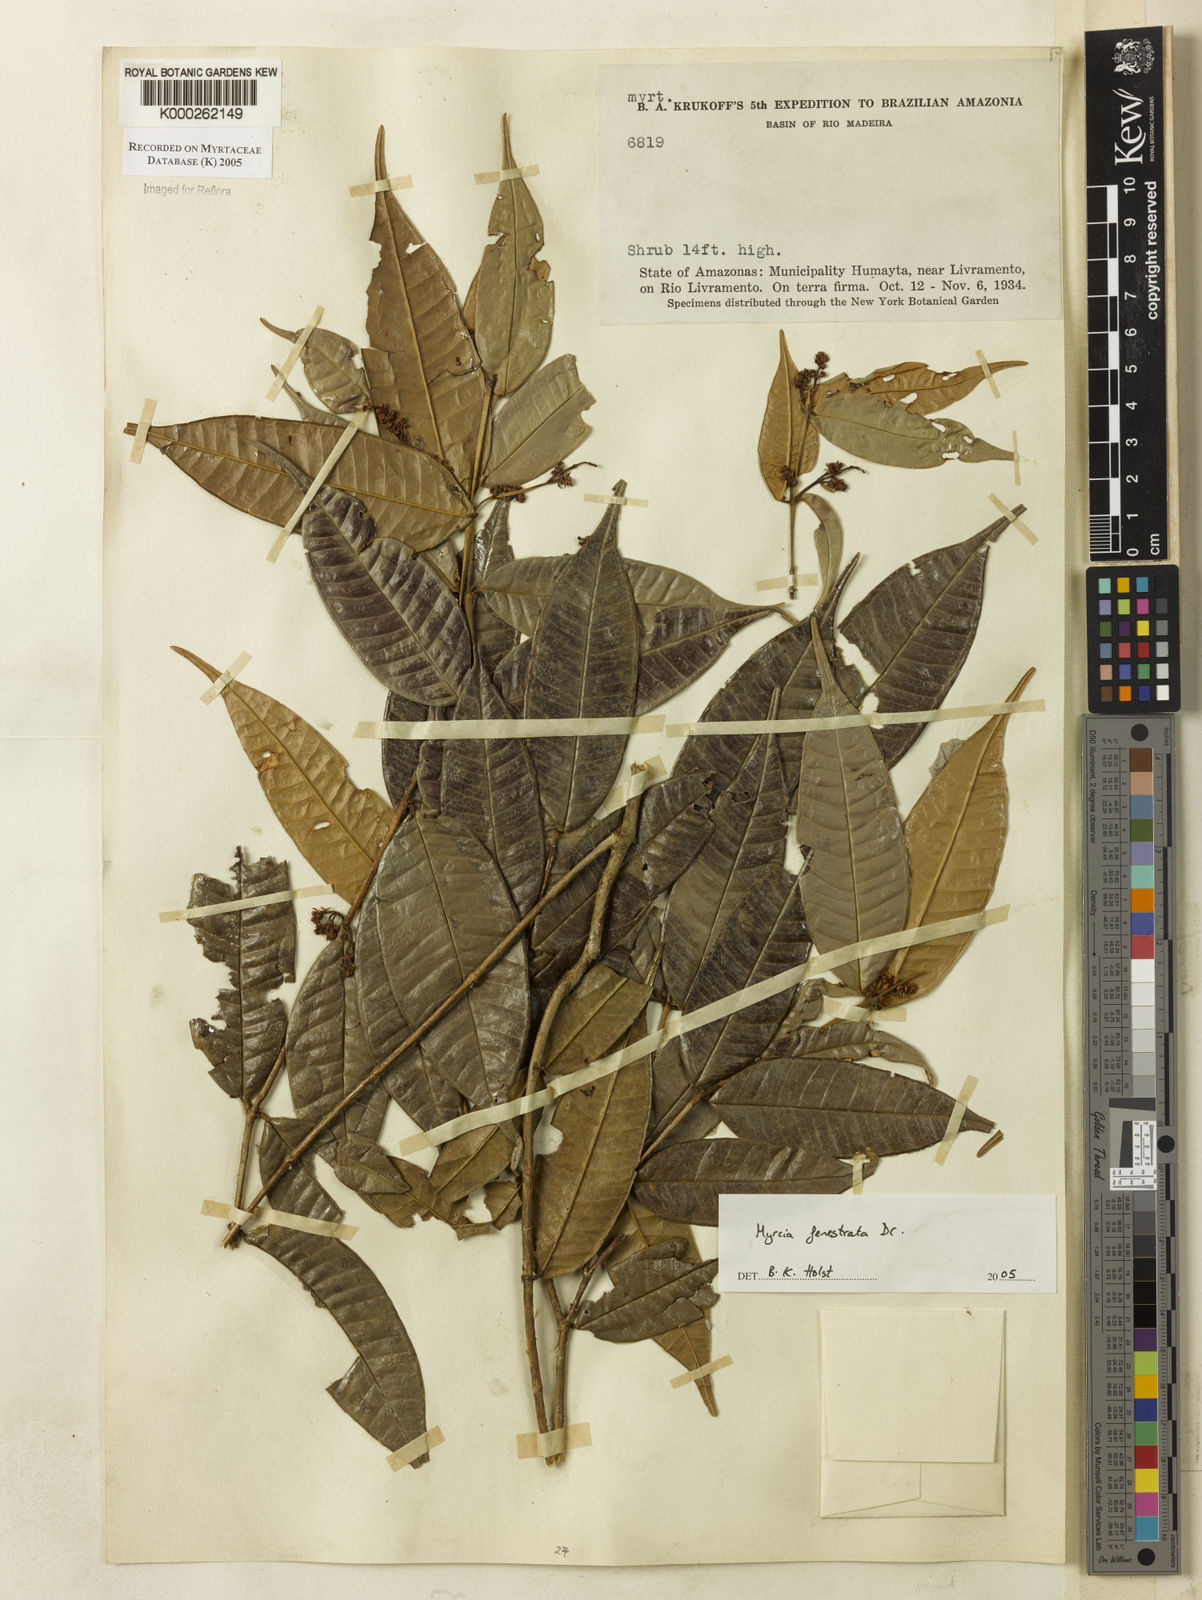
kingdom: Plantae
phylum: Tracheophyta
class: Magnoliopsida
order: Myrtales
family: Myrtaceae
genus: Myrcia
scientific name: Myrcia fenestrata
